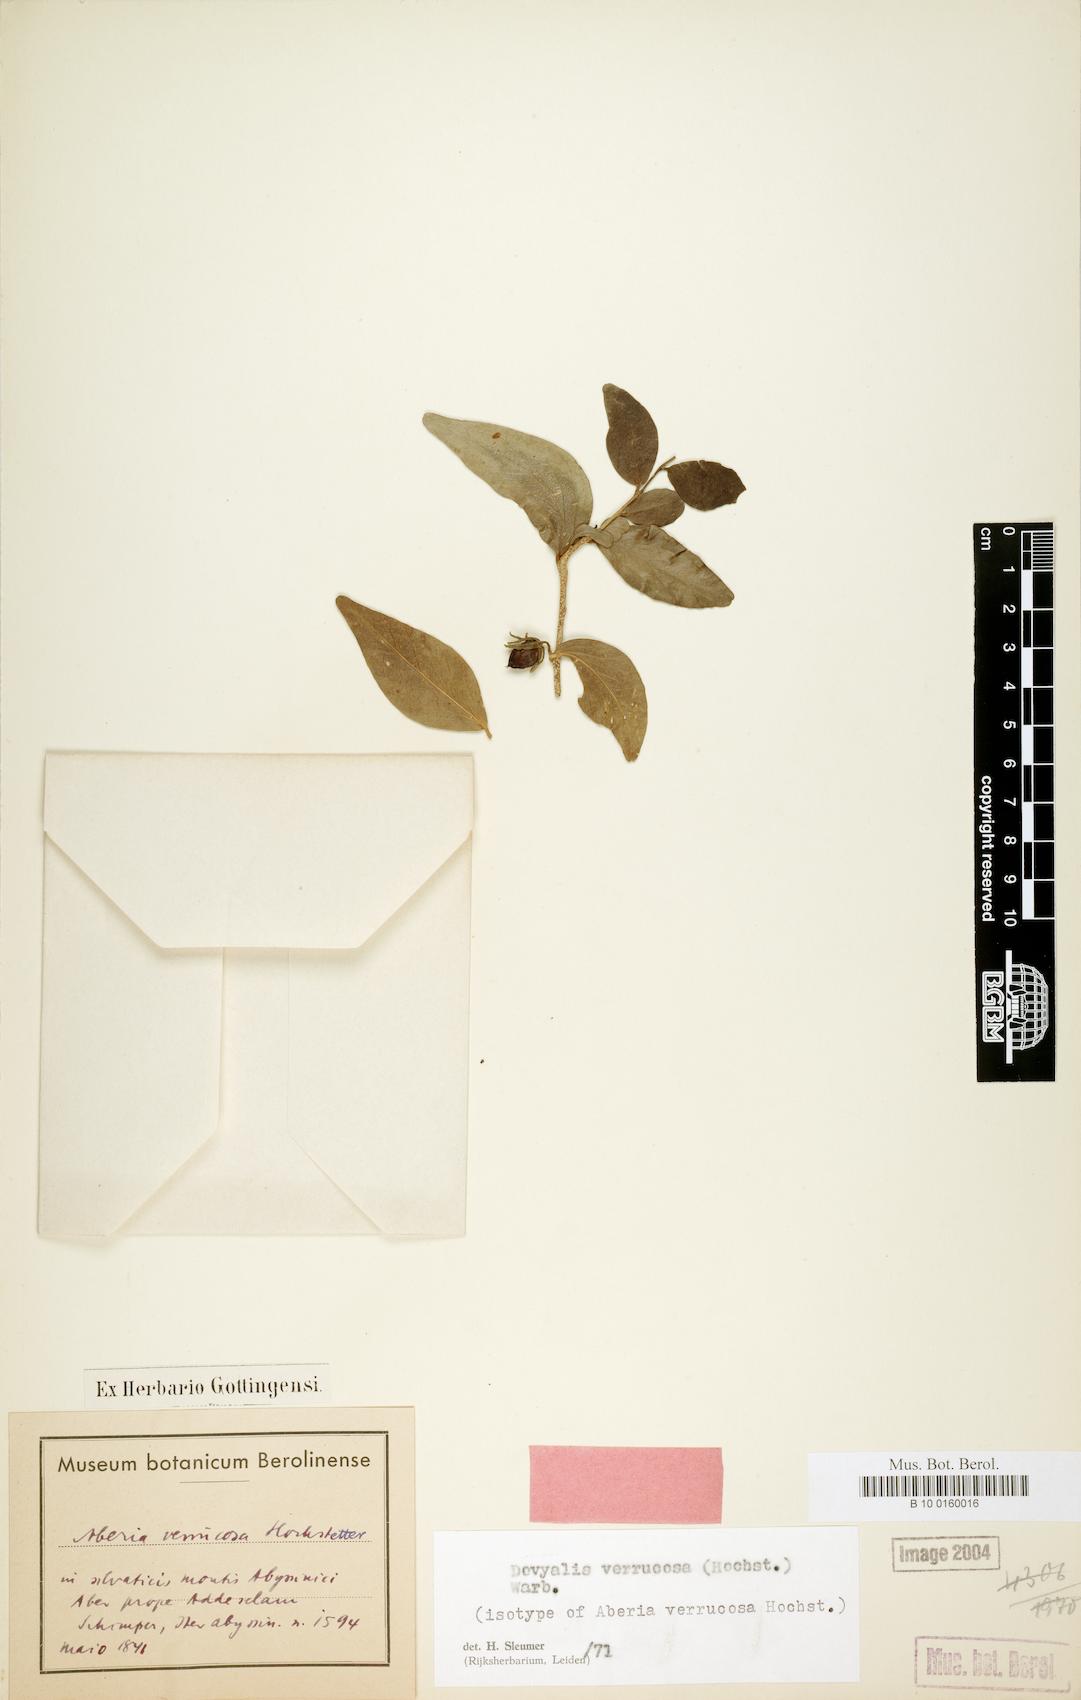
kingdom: Plantae
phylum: Tracheophyta
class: Magnoliopsida
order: Malpighiales
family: Salicaceae
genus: Dovyalis
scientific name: Dovyalis verrucosa
